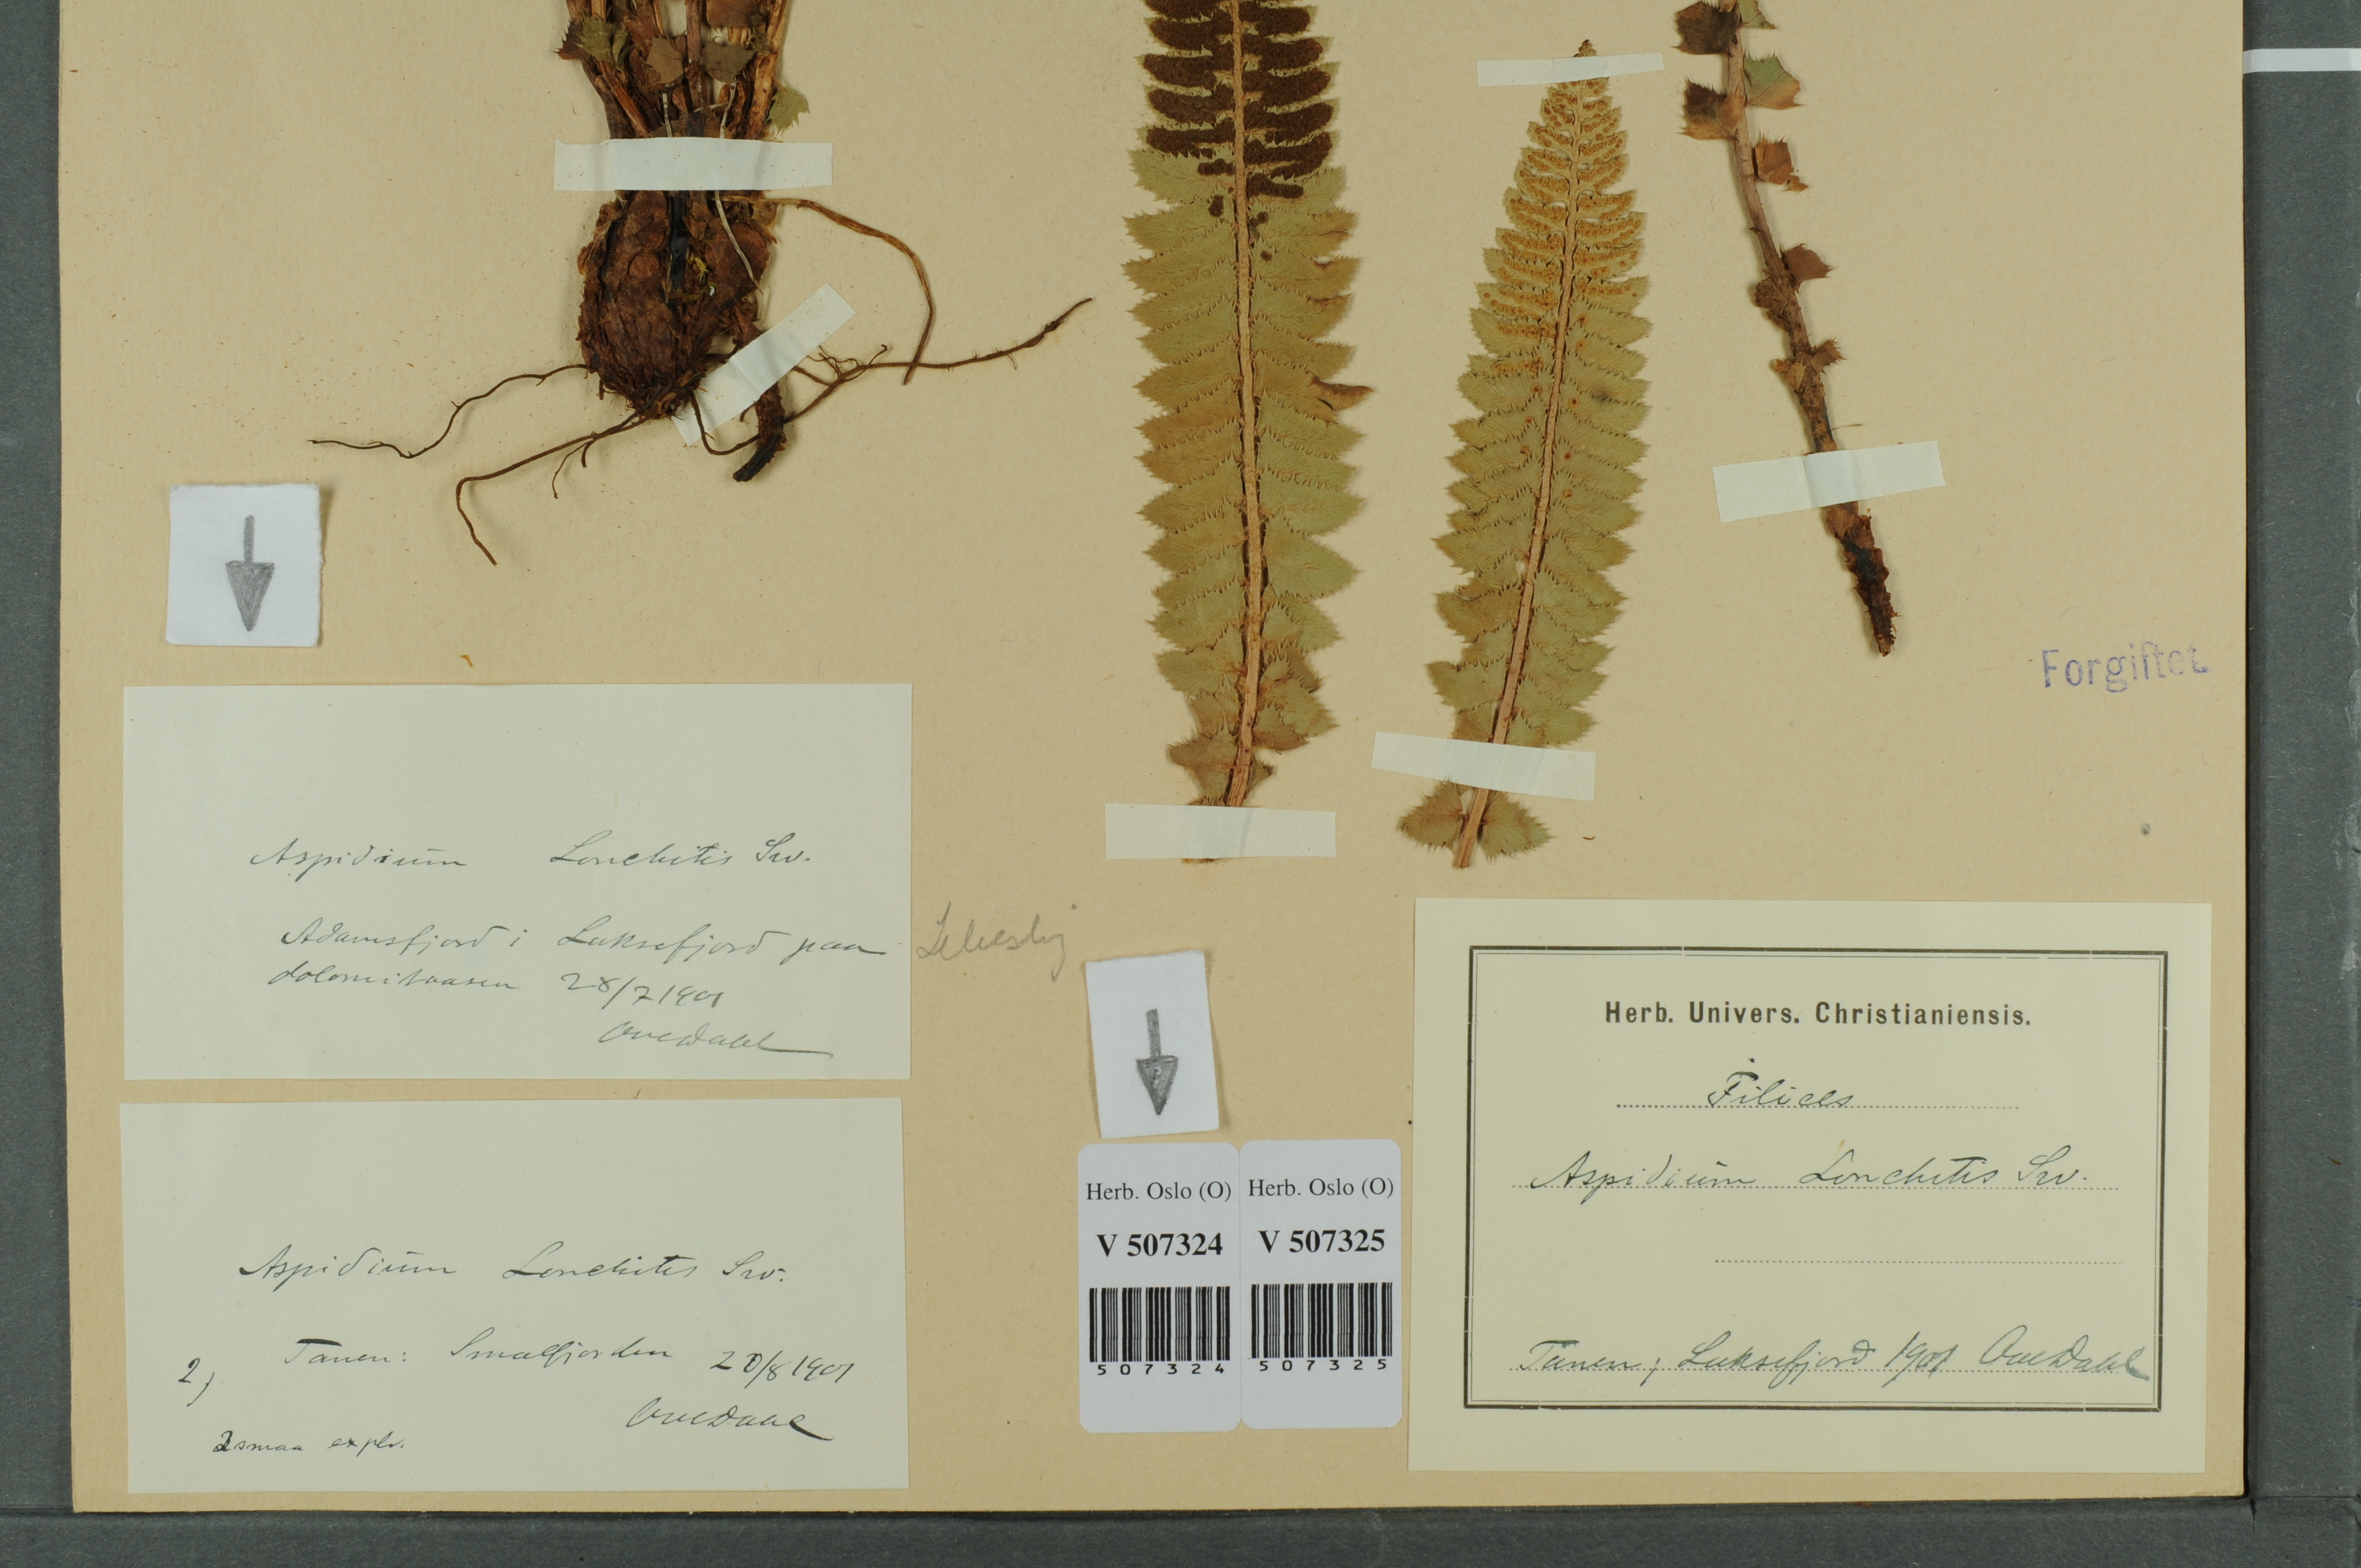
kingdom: Plantae
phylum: Tracheophyta
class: Polypodiopsida
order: Polypodiales
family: Dryopteridaceae
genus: Polystichum
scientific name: Polystichum lonchitis
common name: Holly fern
